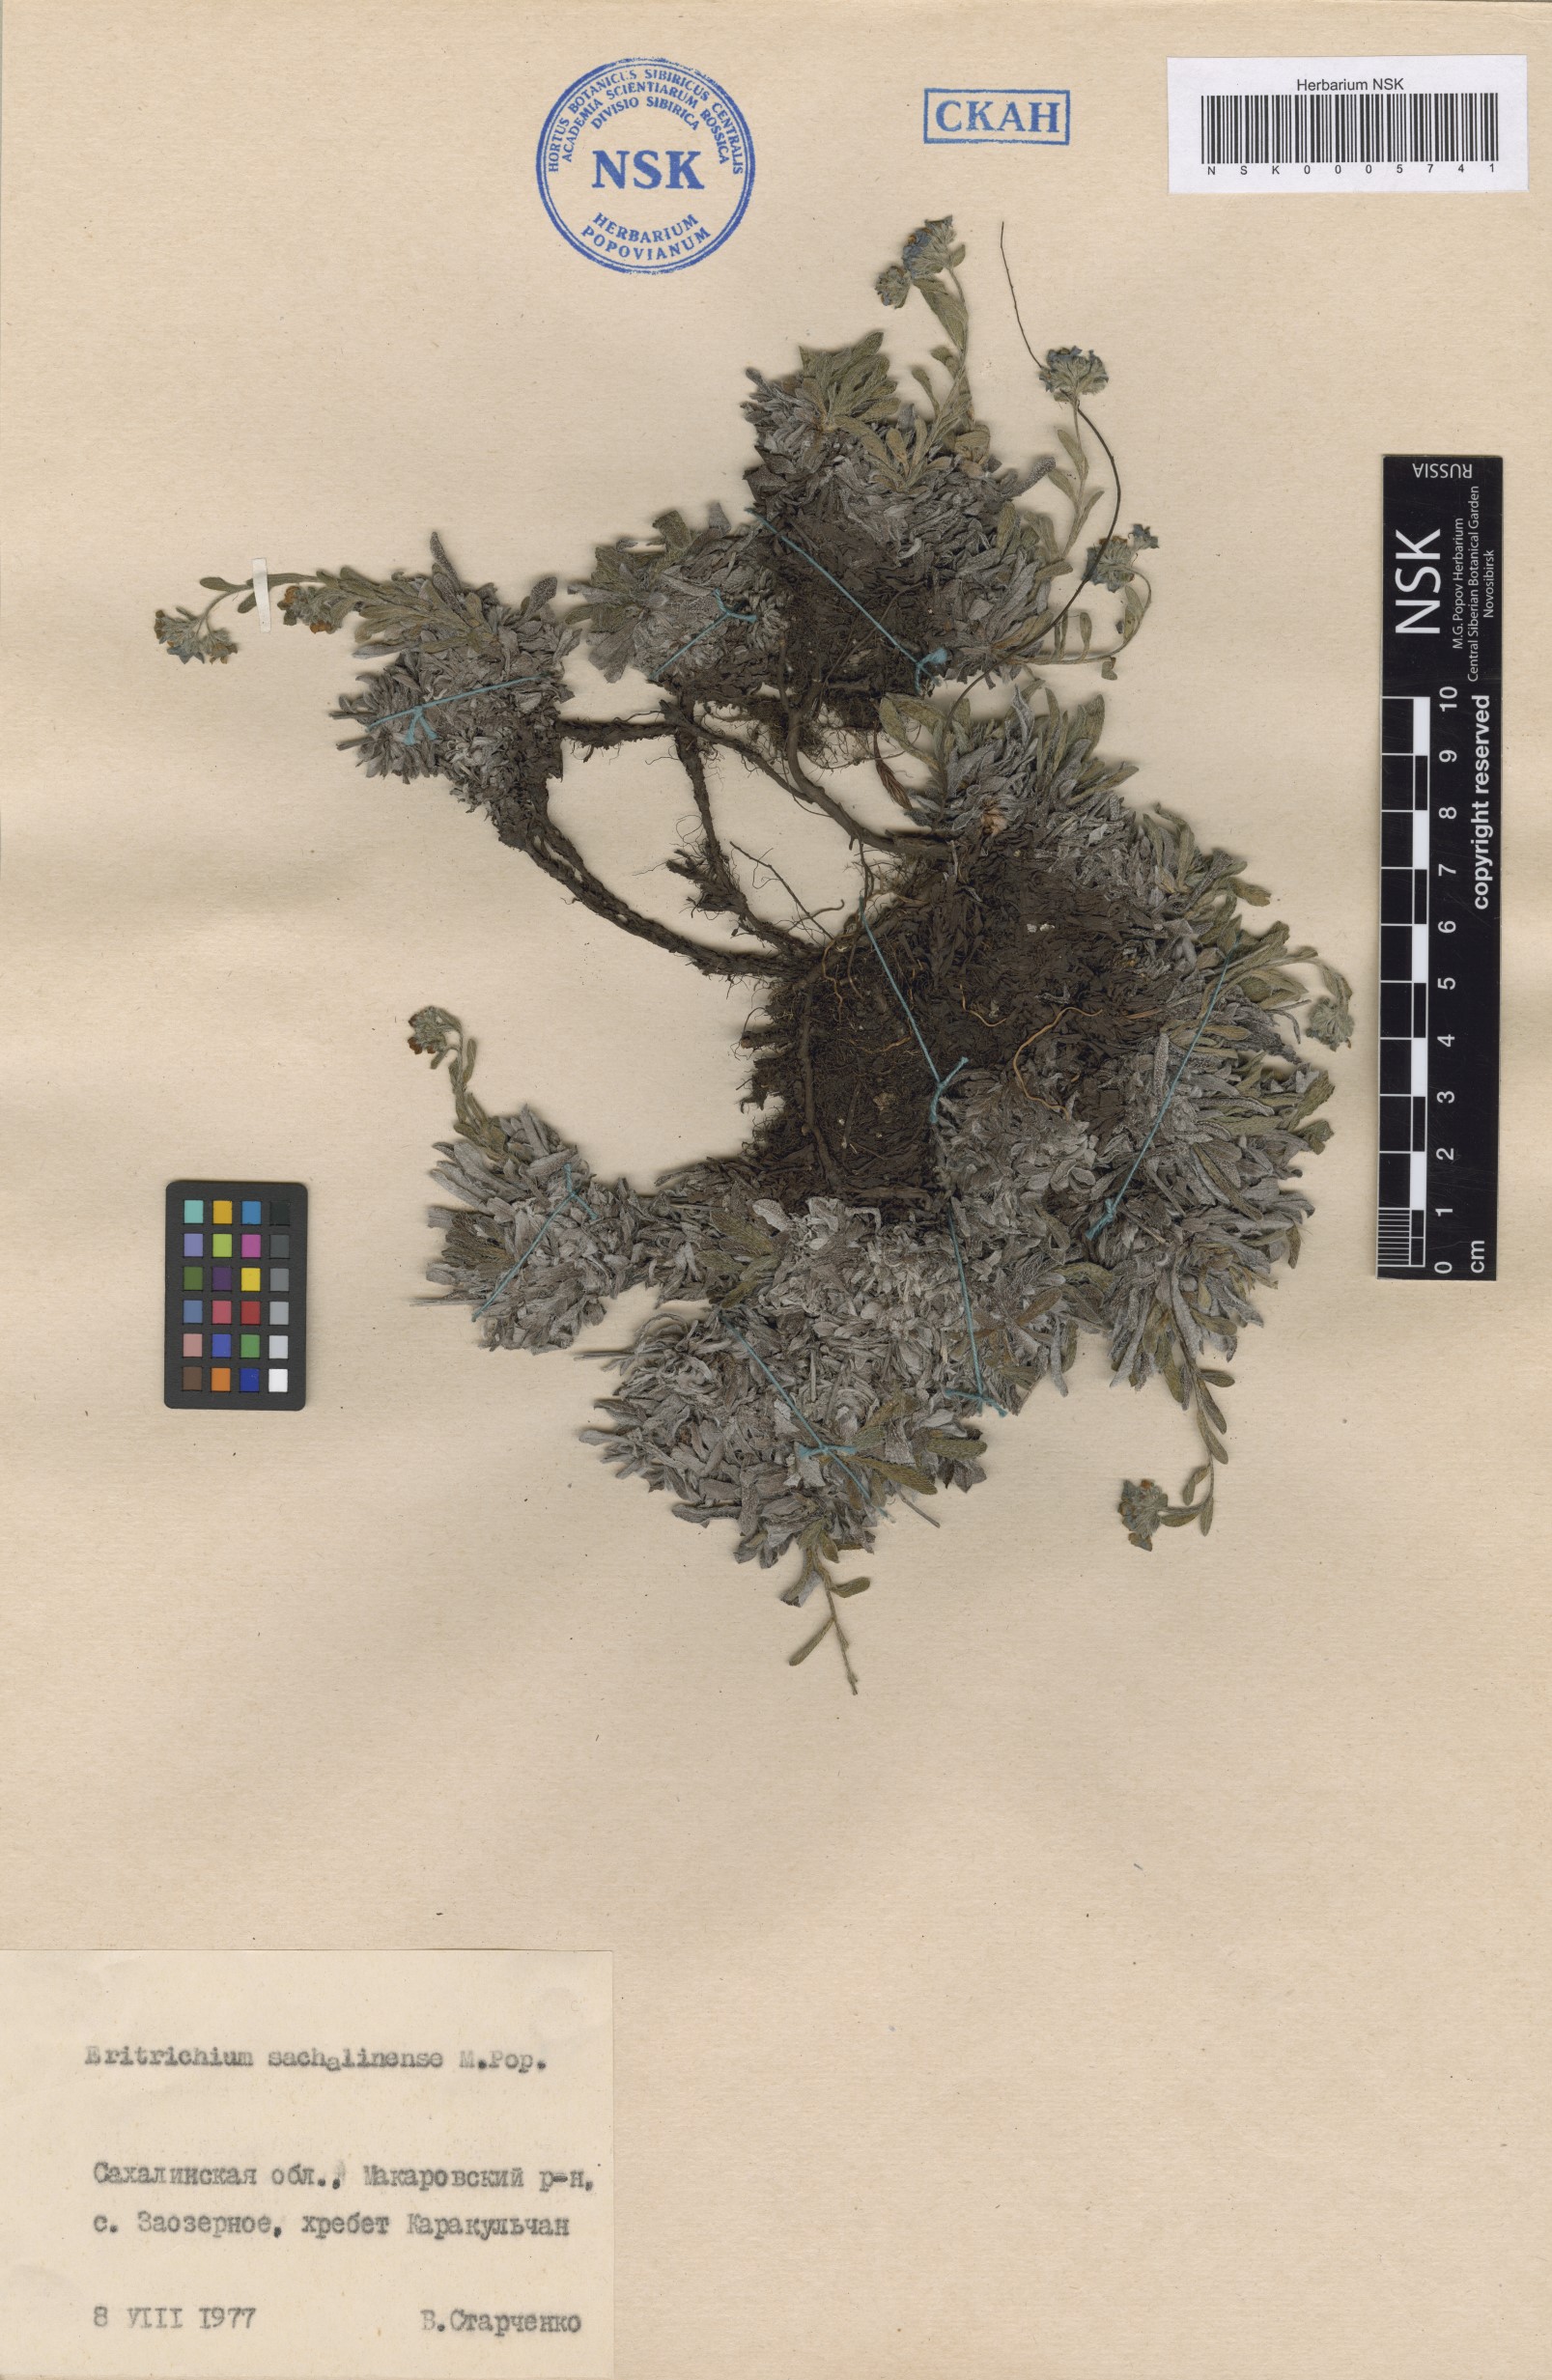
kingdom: Plantae
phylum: Tracheophyta
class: Magnoliopsida
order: Boraginales
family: Boraginaceae
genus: Eritrichium
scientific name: Eritrichium nipponicum
